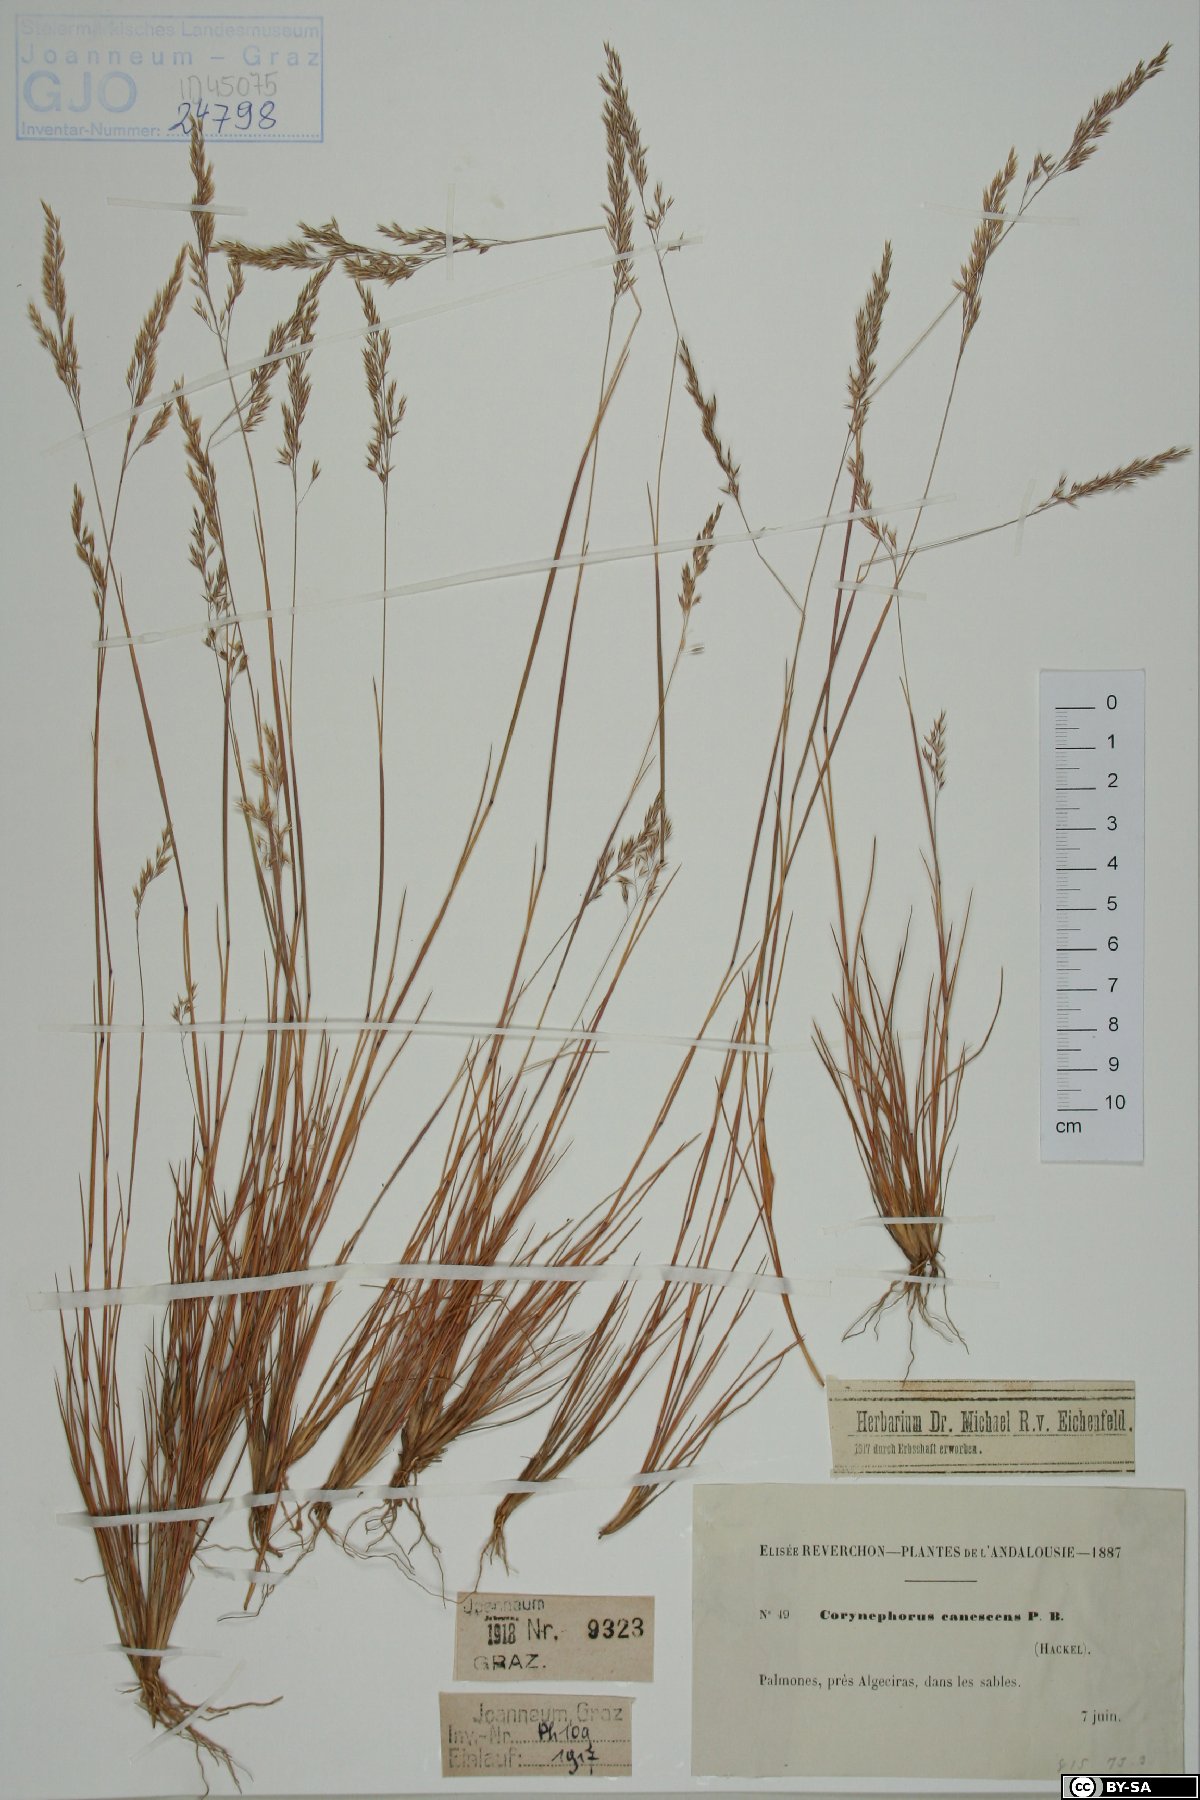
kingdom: Plantae
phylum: Tracheophyta
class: Liliopsida
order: Poales
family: Poaceae
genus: Corynephorus
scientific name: Corynephorus canescens
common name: Grey hair-grass
